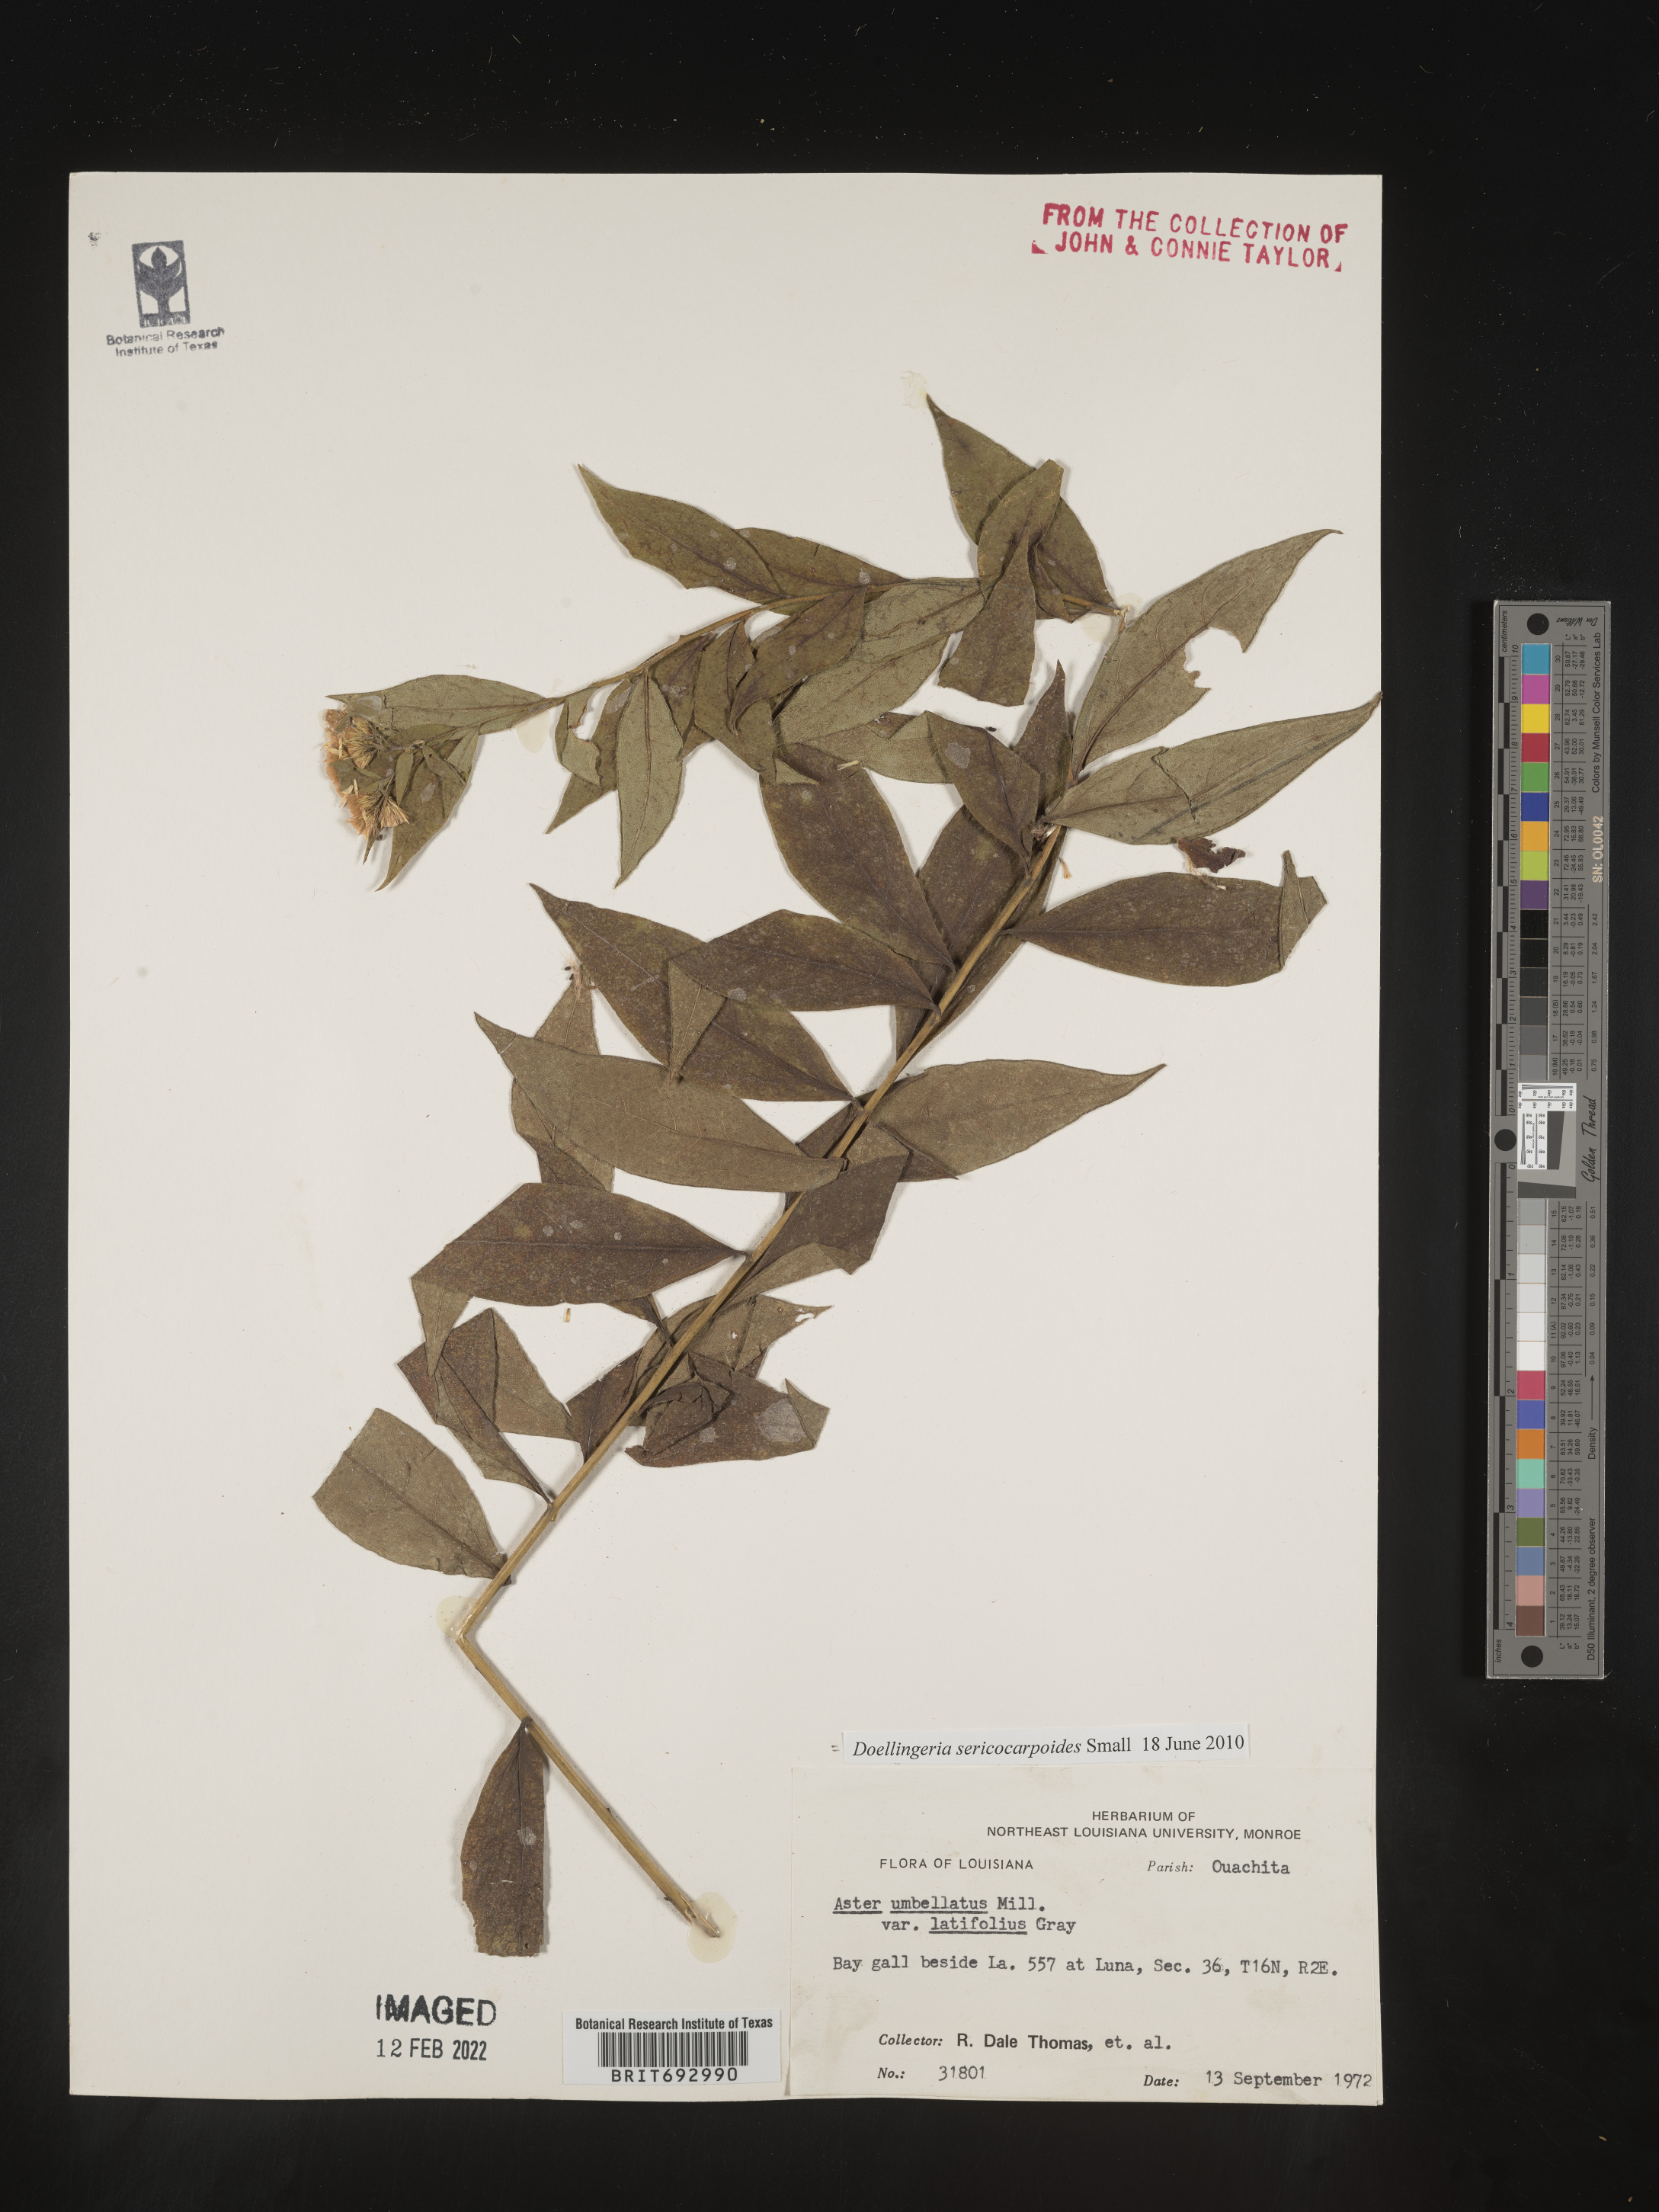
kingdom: Plantae
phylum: Tracheophyta
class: Magnoliopsida
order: Asterales
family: Asteraceae
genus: Doellingeria
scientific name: Doellingeria sericocarpoides
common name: Southern tall flat-top aster
